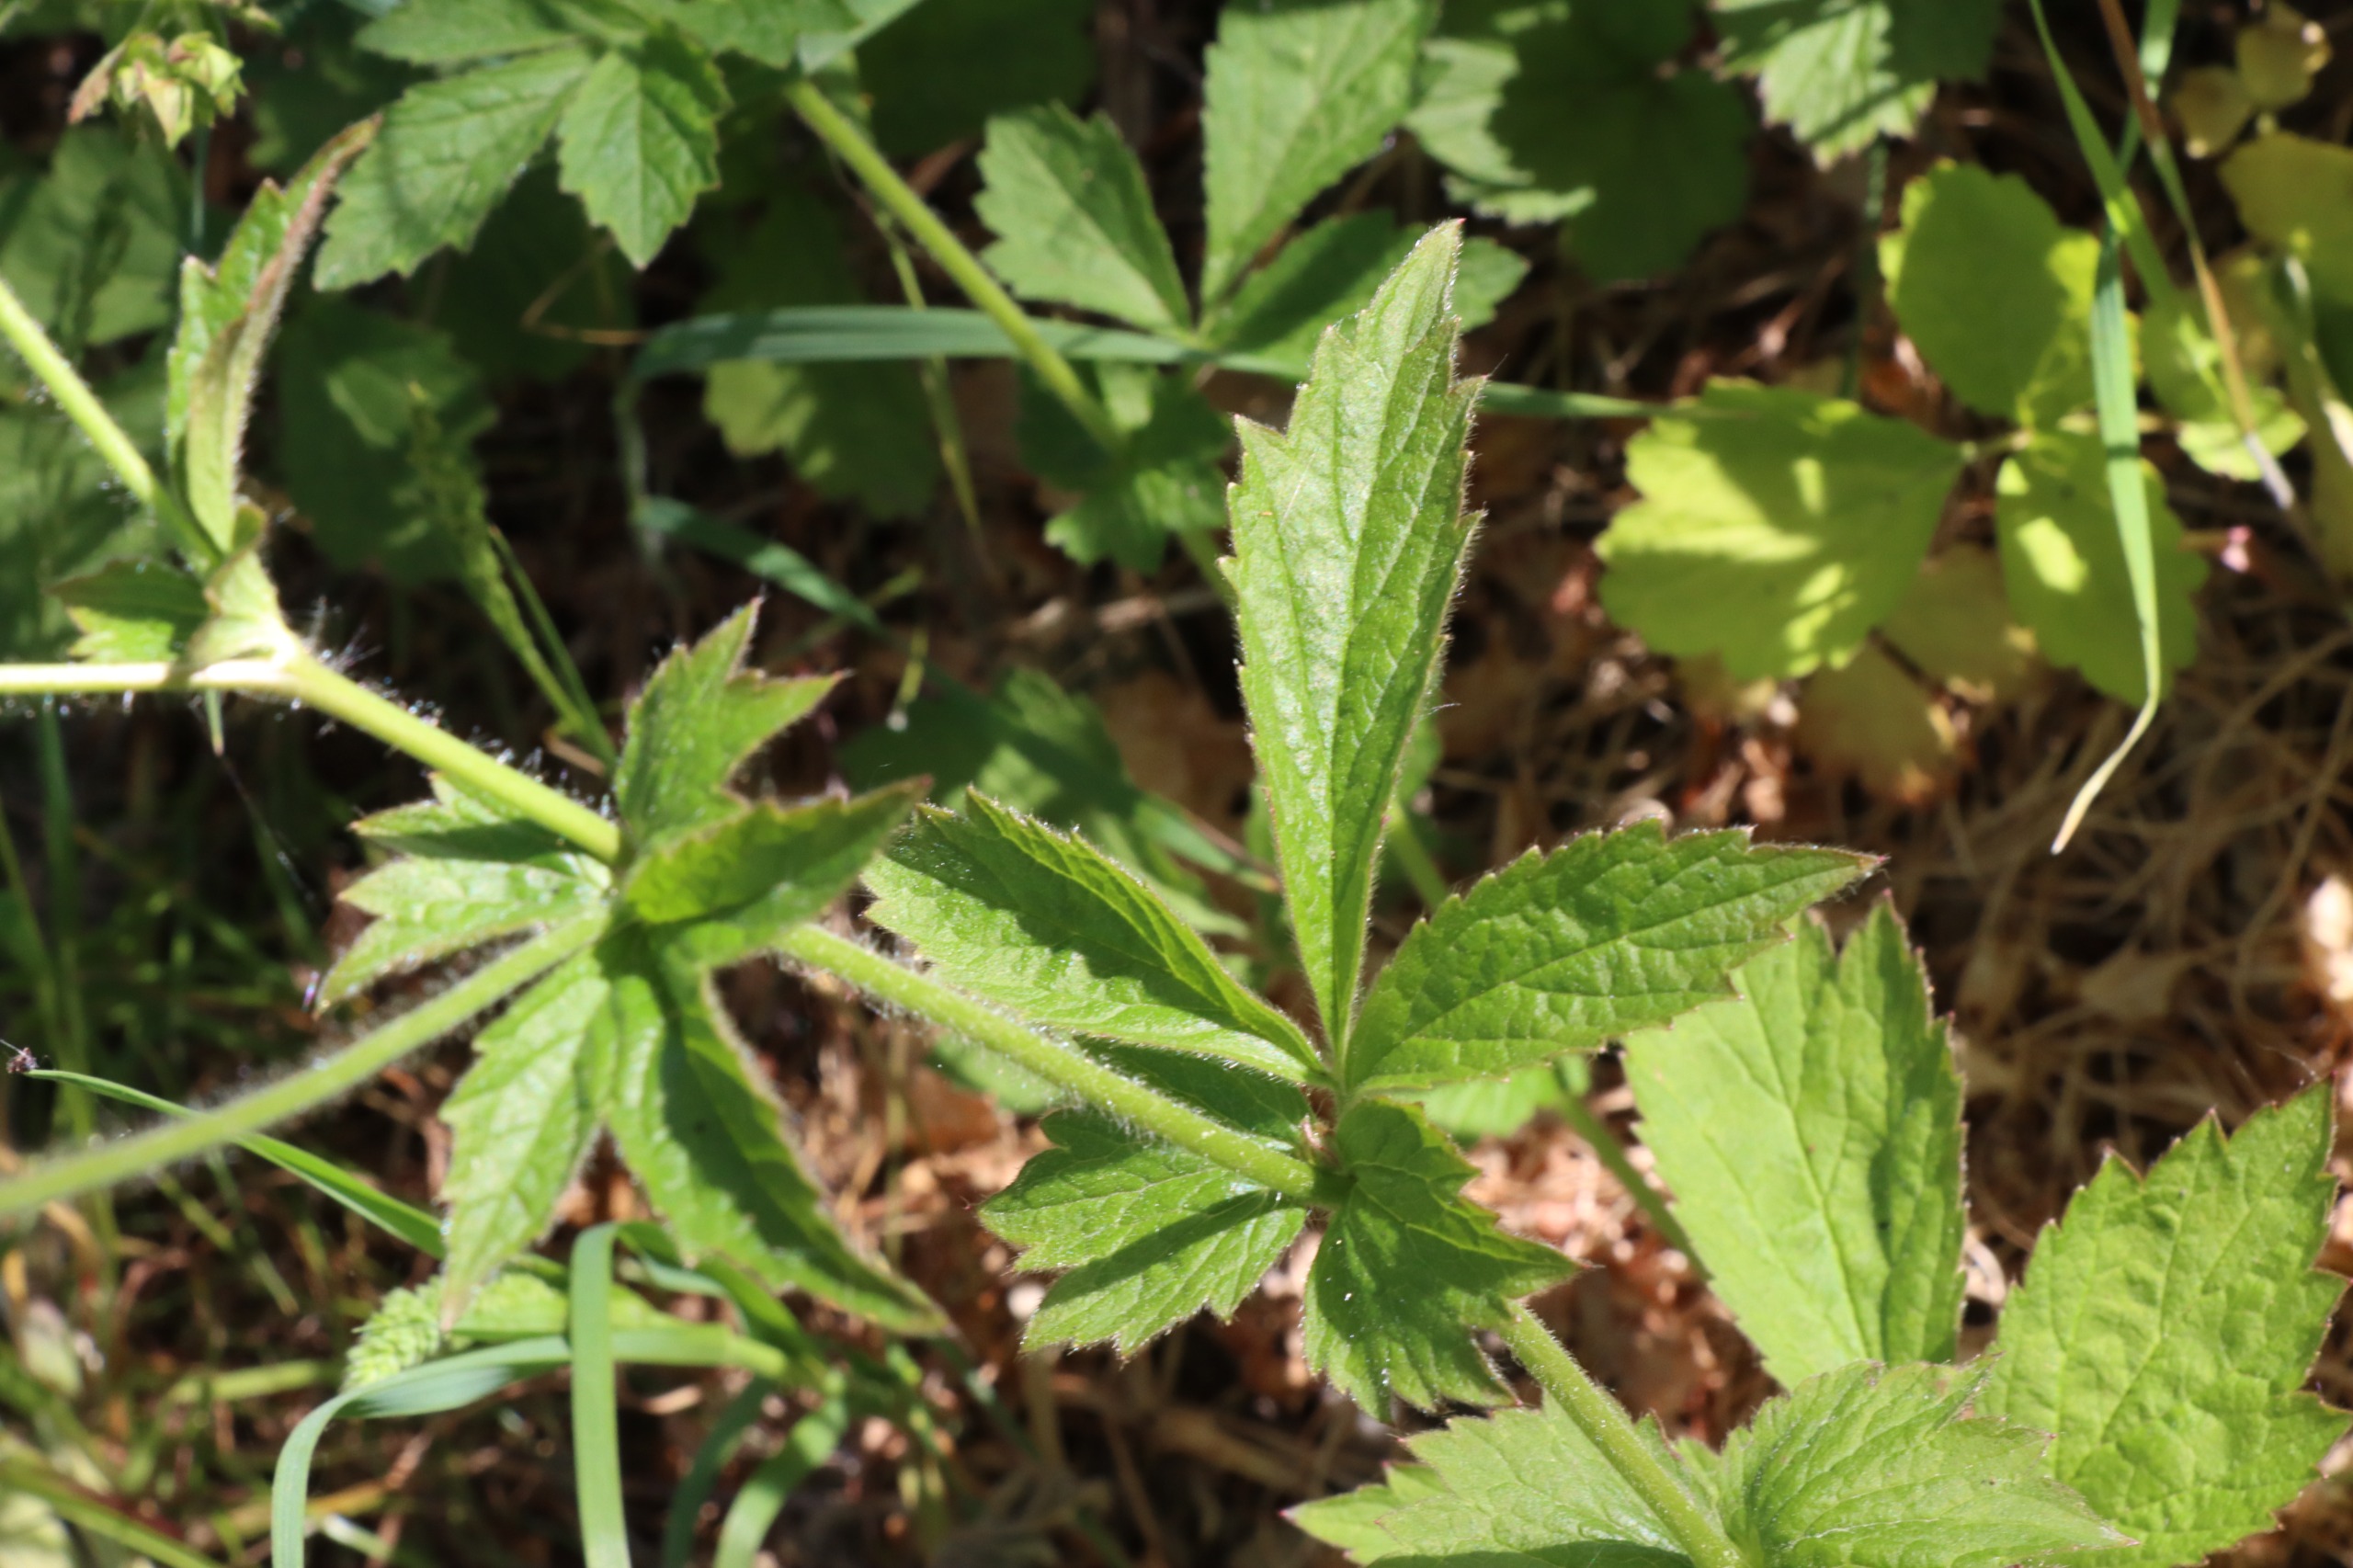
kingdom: Plantae
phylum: Tracheophyta
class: Magnoliopsida
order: Rosales
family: Rosaceae
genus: Geum
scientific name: Geum urbanum
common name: Feber-nellikerod
